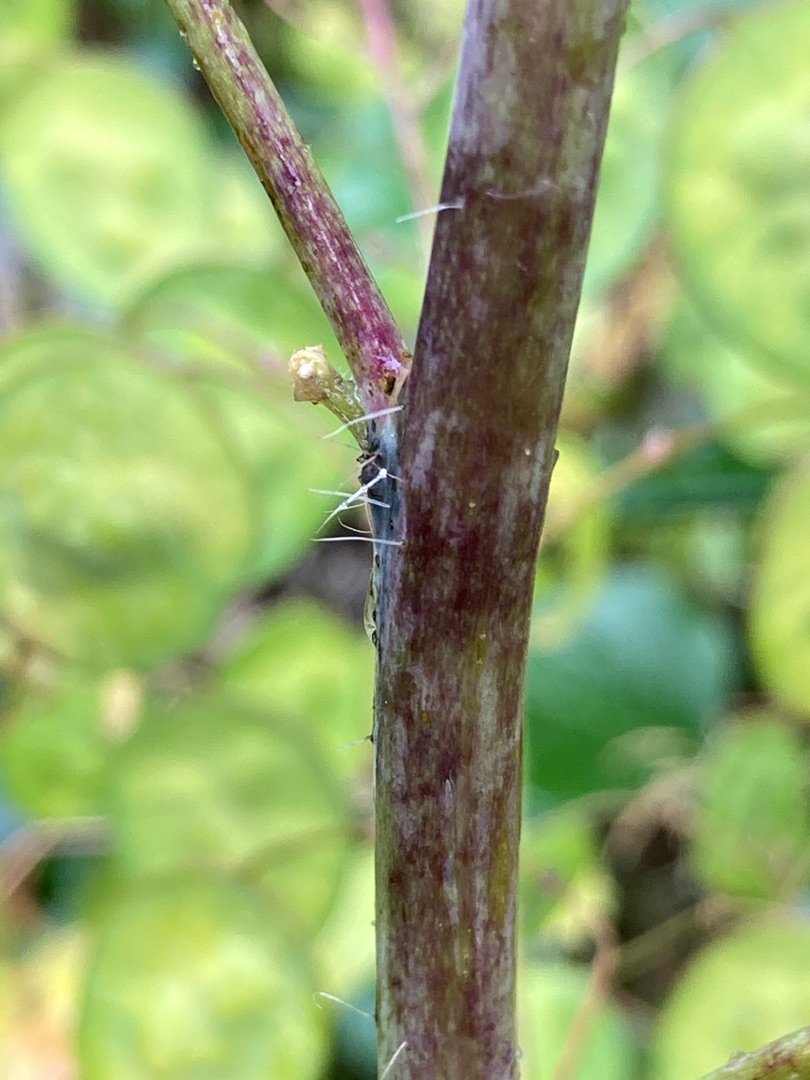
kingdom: Plantae
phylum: Tracheophyta
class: Magnoliopsida
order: Brassicales
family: Brassicaceae
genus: Lunaria
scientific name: Lunaria annua
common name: Judaspenge
